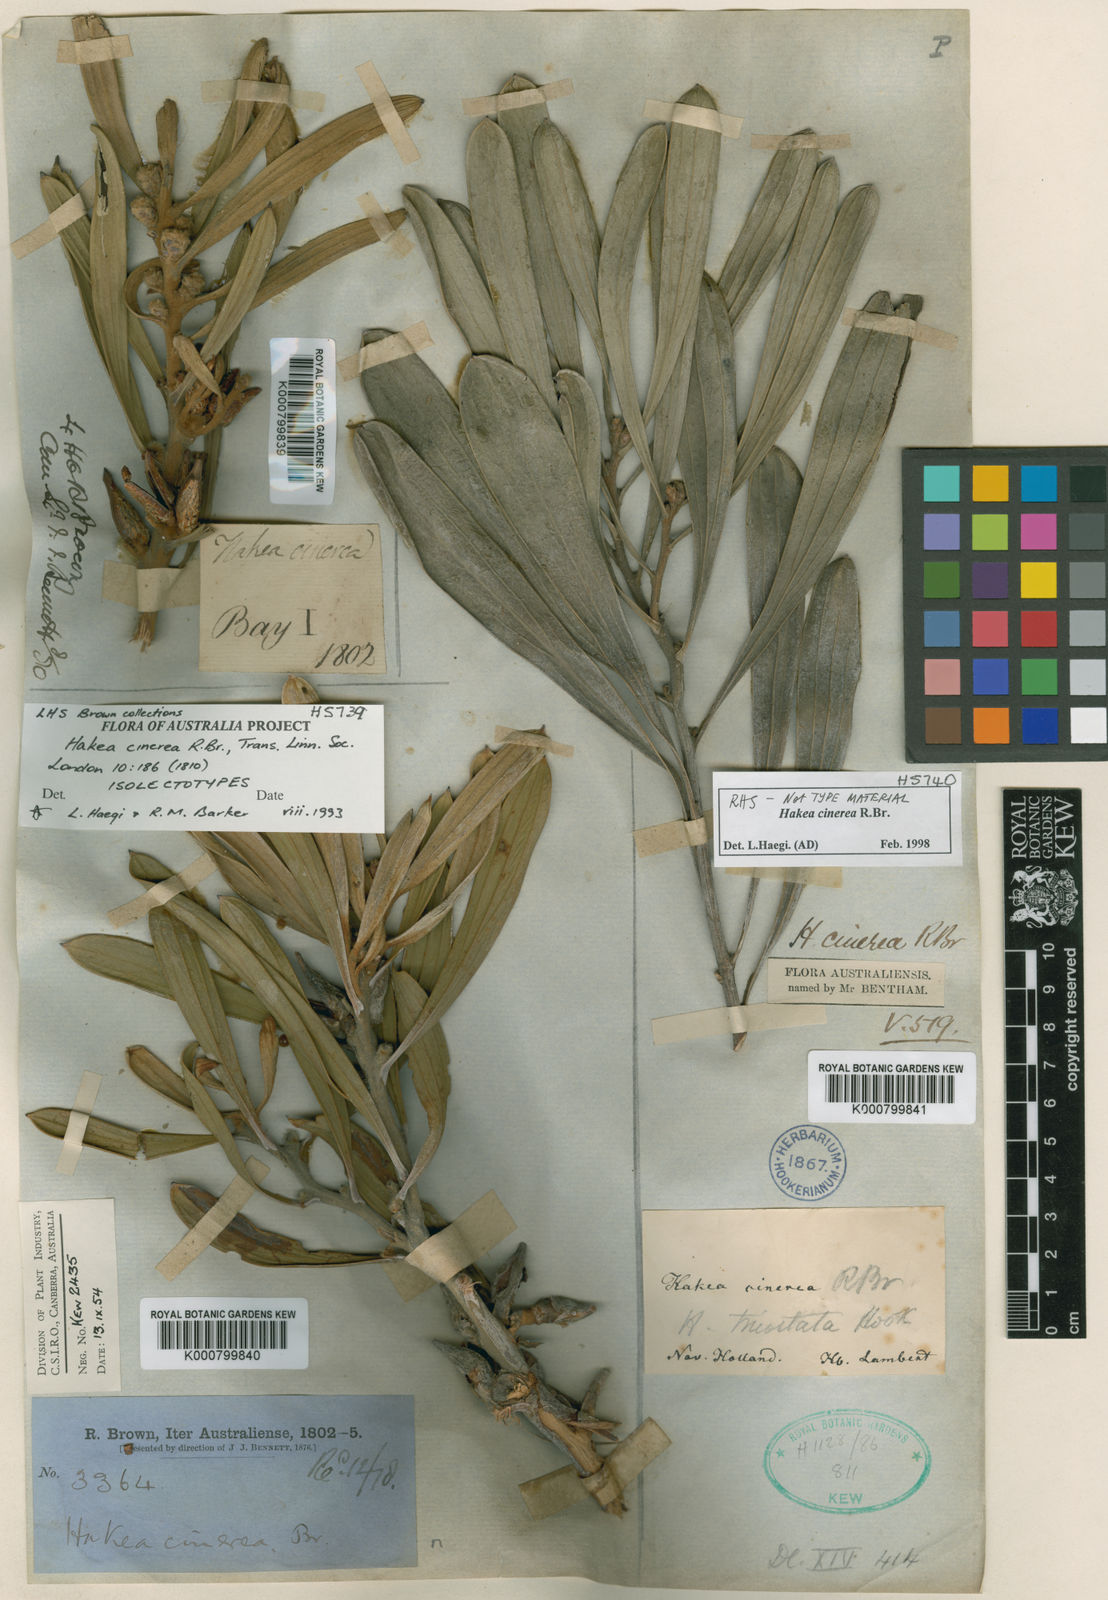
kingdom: Plantae
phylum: Tracheophyta
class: Magnoliopsida
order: Proteales
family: Proteaceae
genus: Hakea
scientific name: Hakea cinerea
